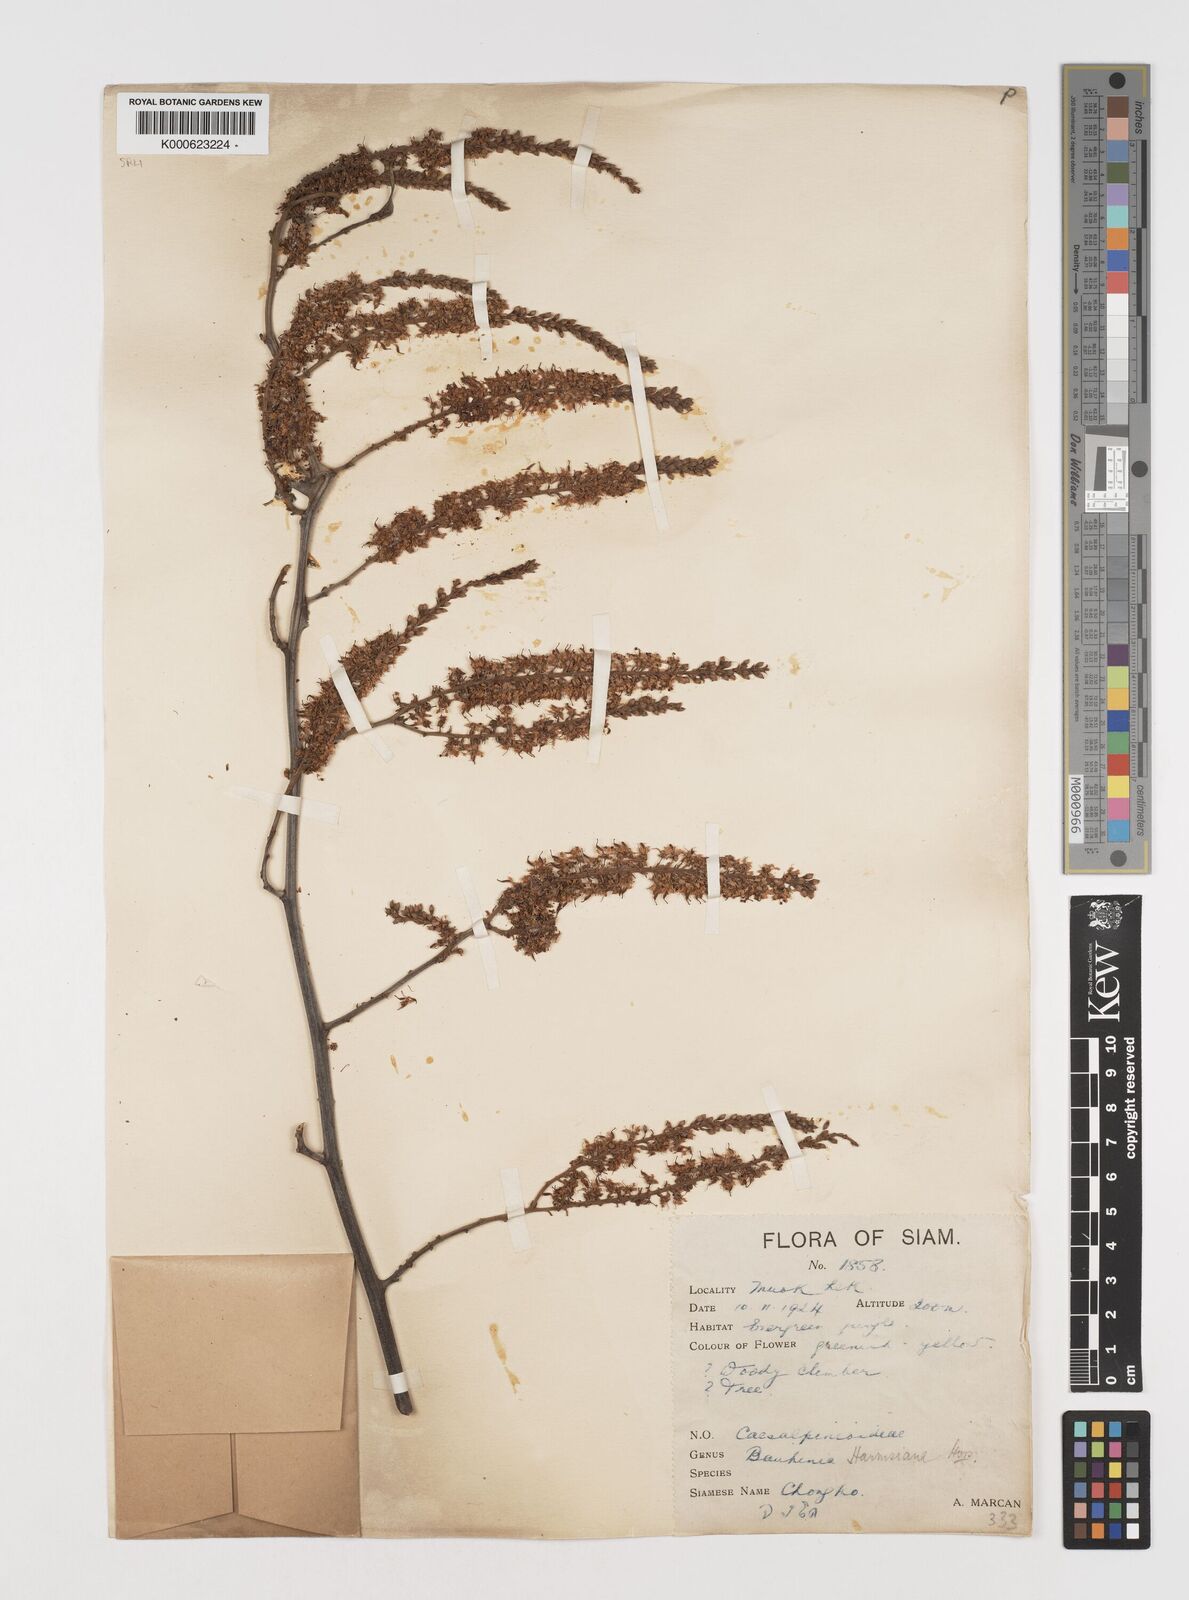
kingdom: Plantae
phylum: Tracheophyta
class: Magnoliopsida
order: Fabales
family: Fabaceae
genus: Phanera
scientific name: Phanera harmsiana
